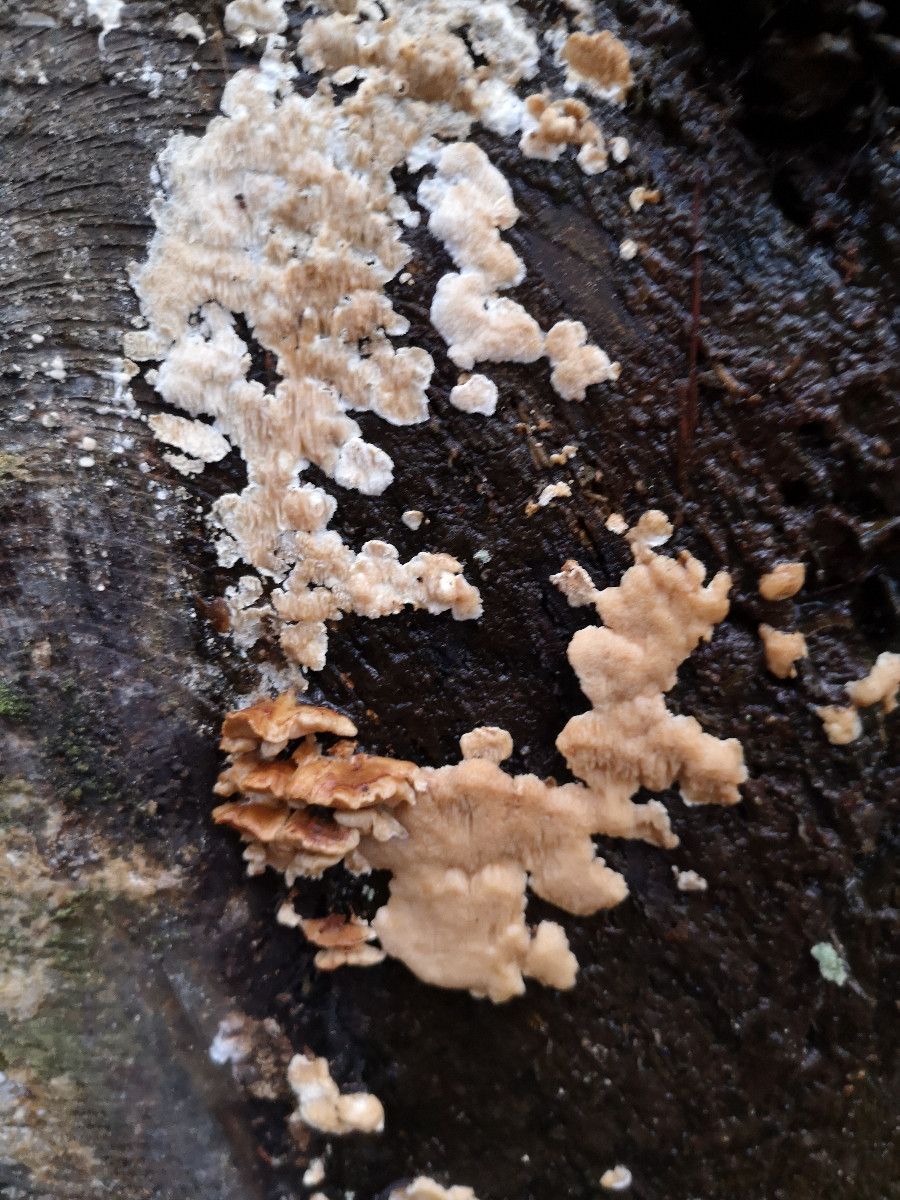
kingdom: Fungi
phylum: Basidiomycota
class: Agaricomycetes
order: Polyporales
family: Fomitopsidaceae
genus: Neoantrodia
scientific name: Neoantrodia serialis
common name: række-sejporesvamp
